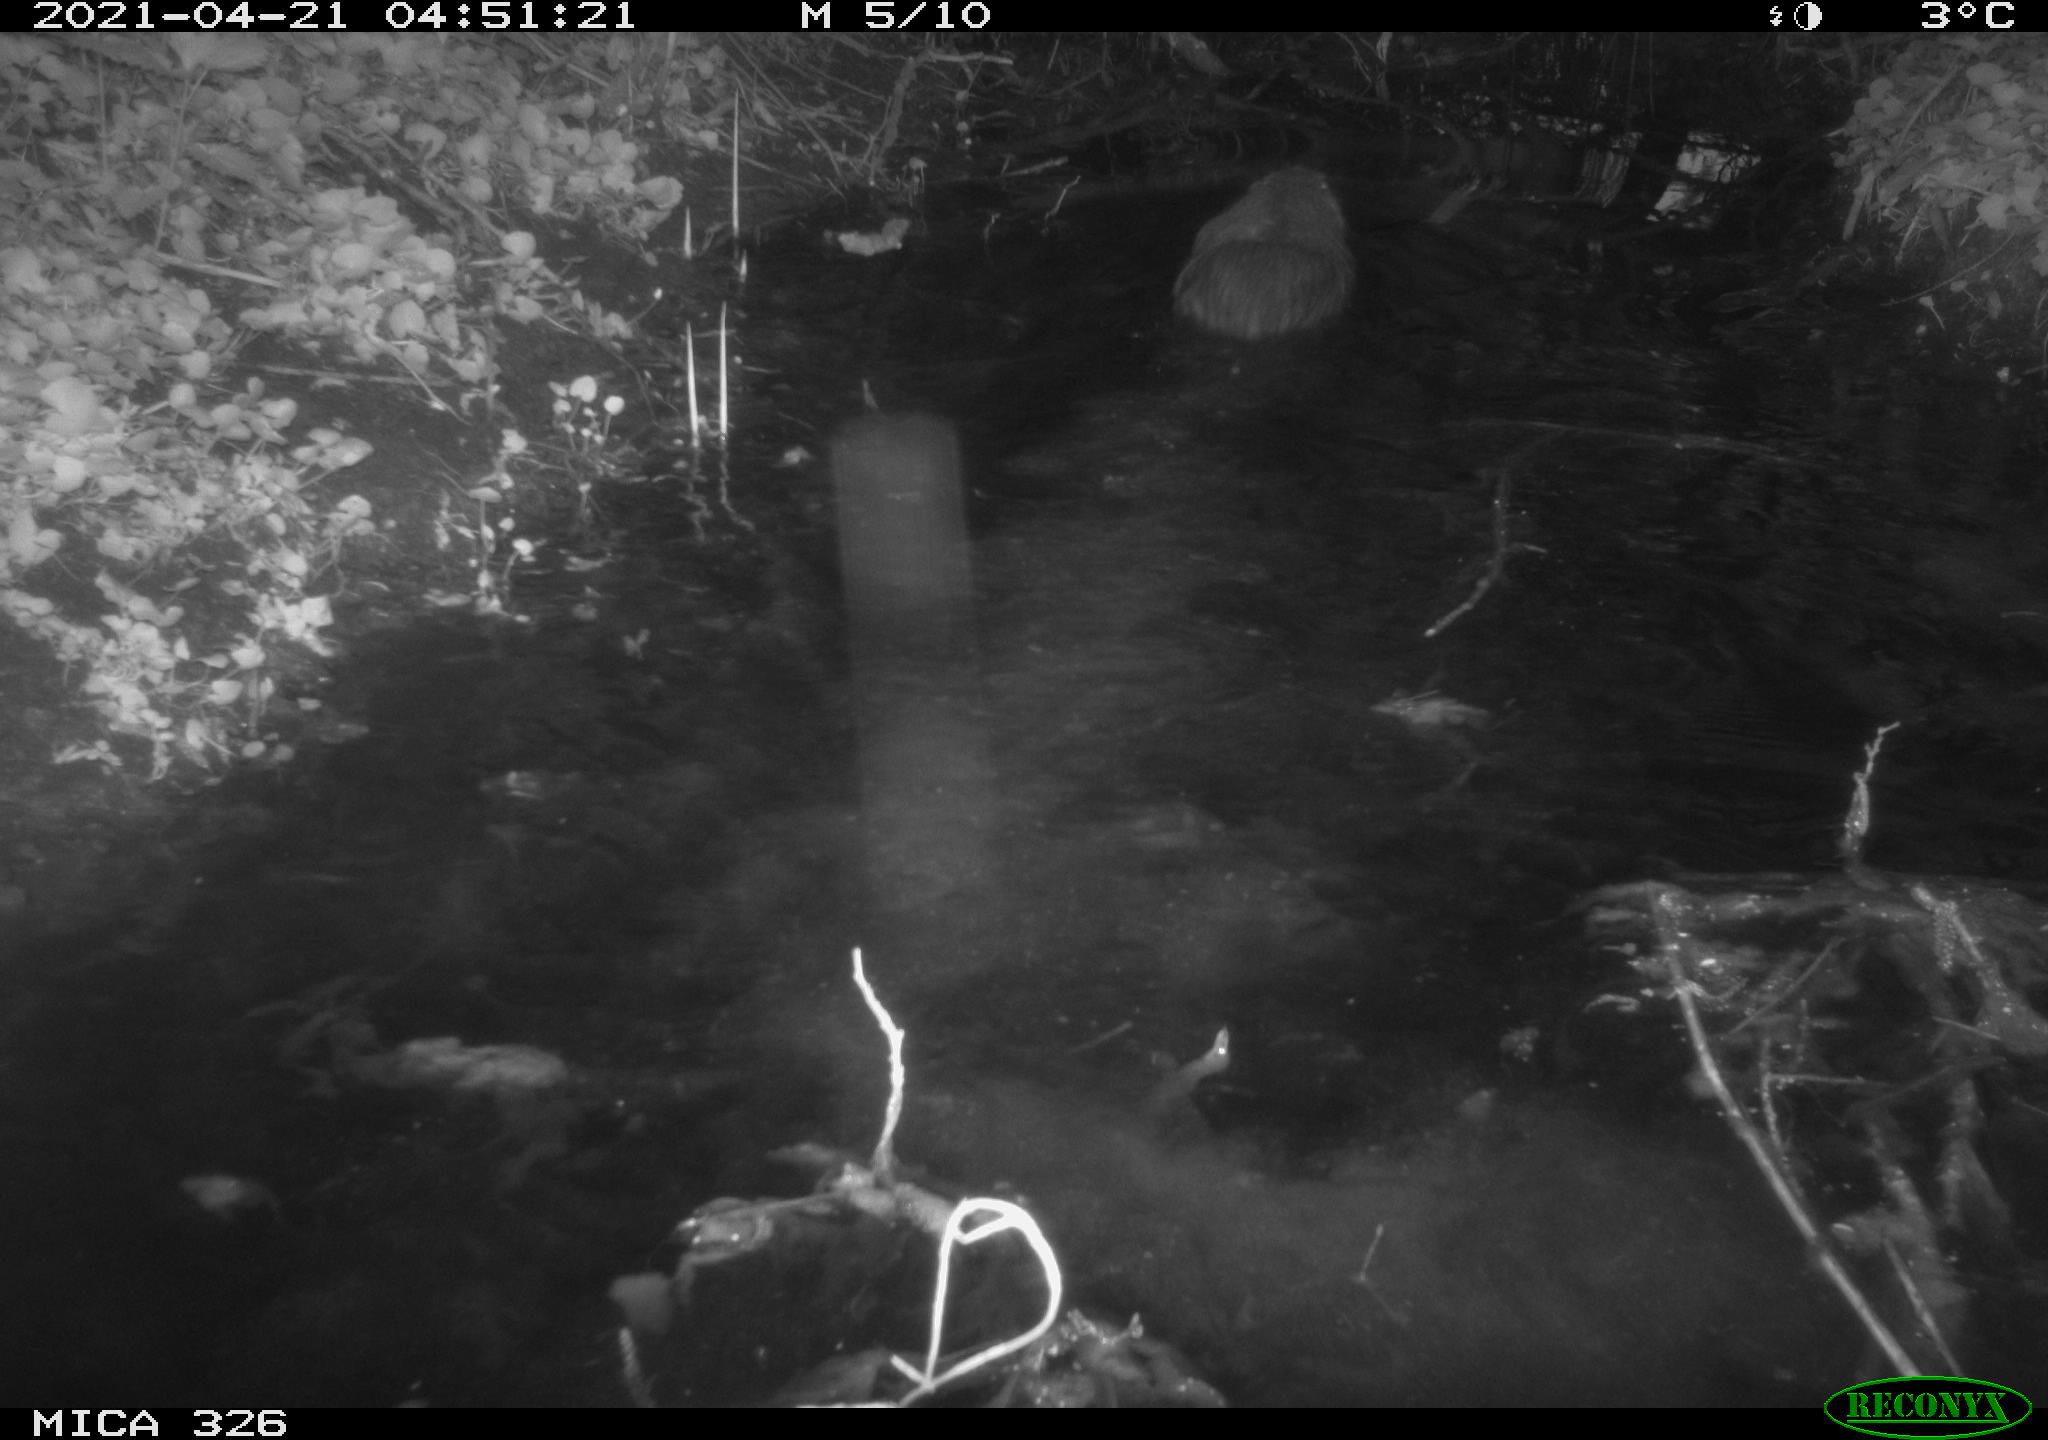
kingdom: Animalia
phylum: Chordata
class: Mammalia
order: Rodentia
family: Myocastoridae
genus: Myocastor
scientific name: Myocastor coypus
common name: Coypu
